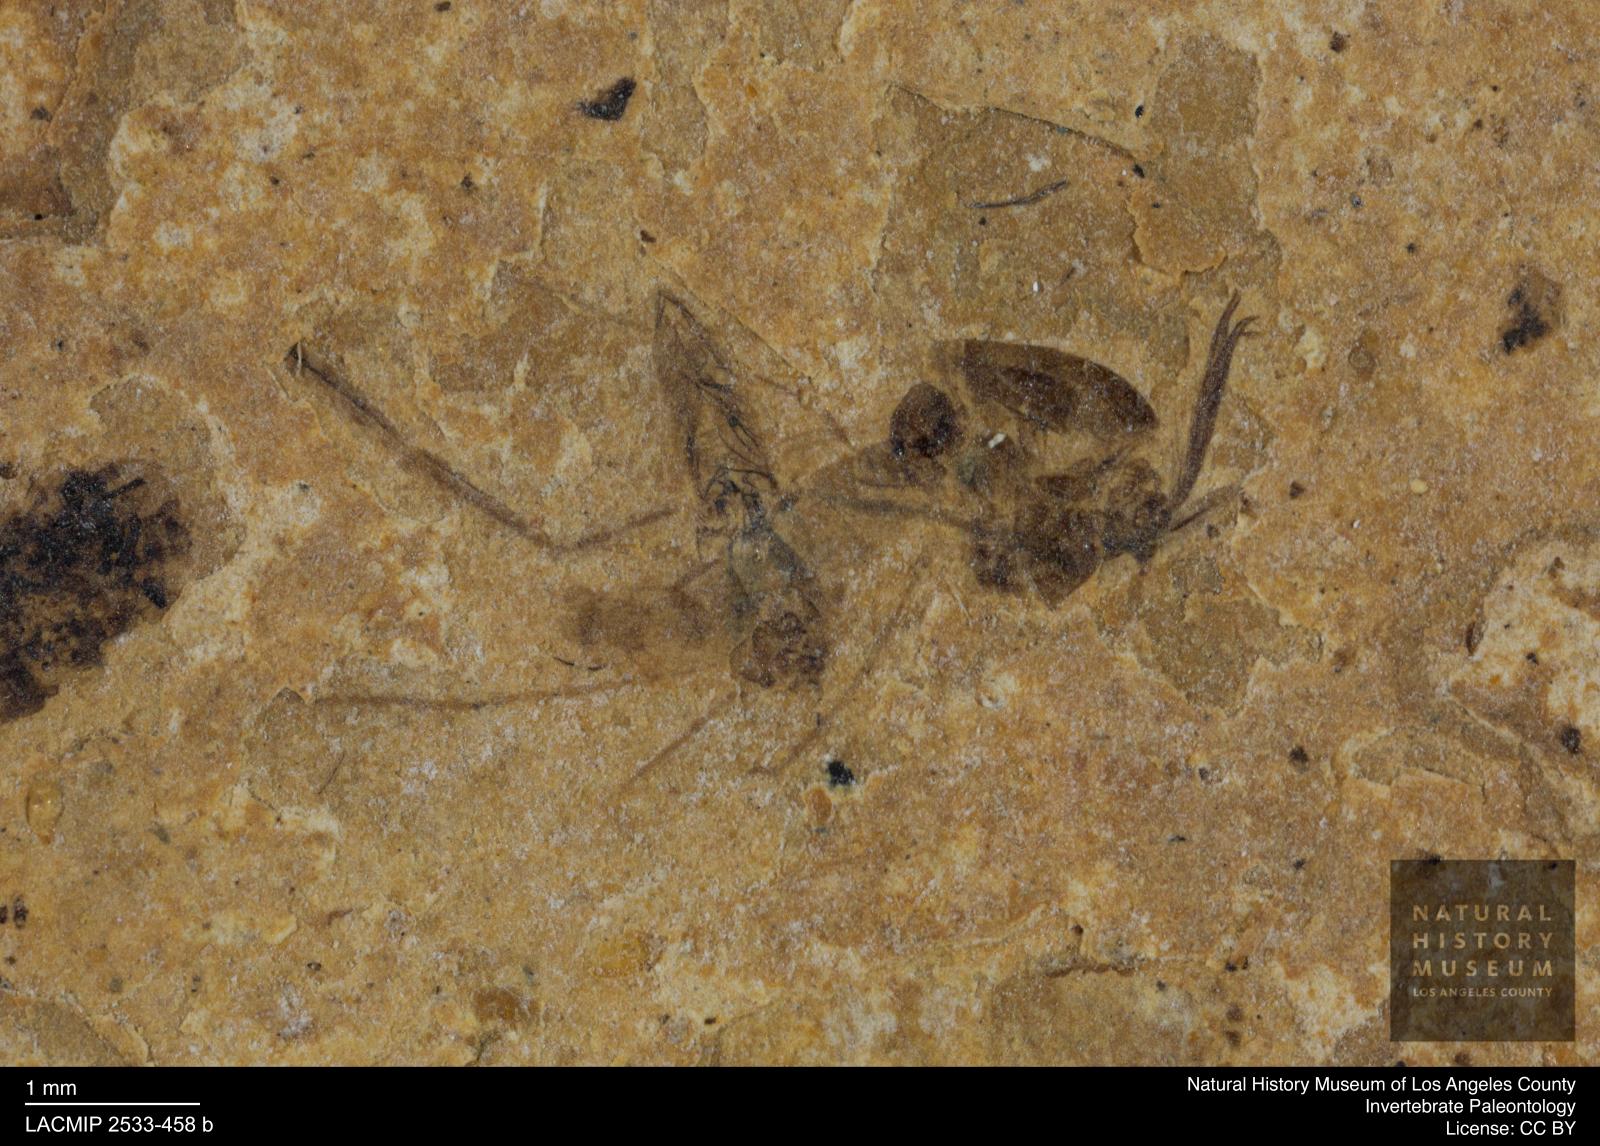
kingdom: Animalia
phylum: Arthropoda
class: Insecta
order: Diptera
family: Chironomidae
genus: Tanypus
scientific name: Tanypus thienemanni
